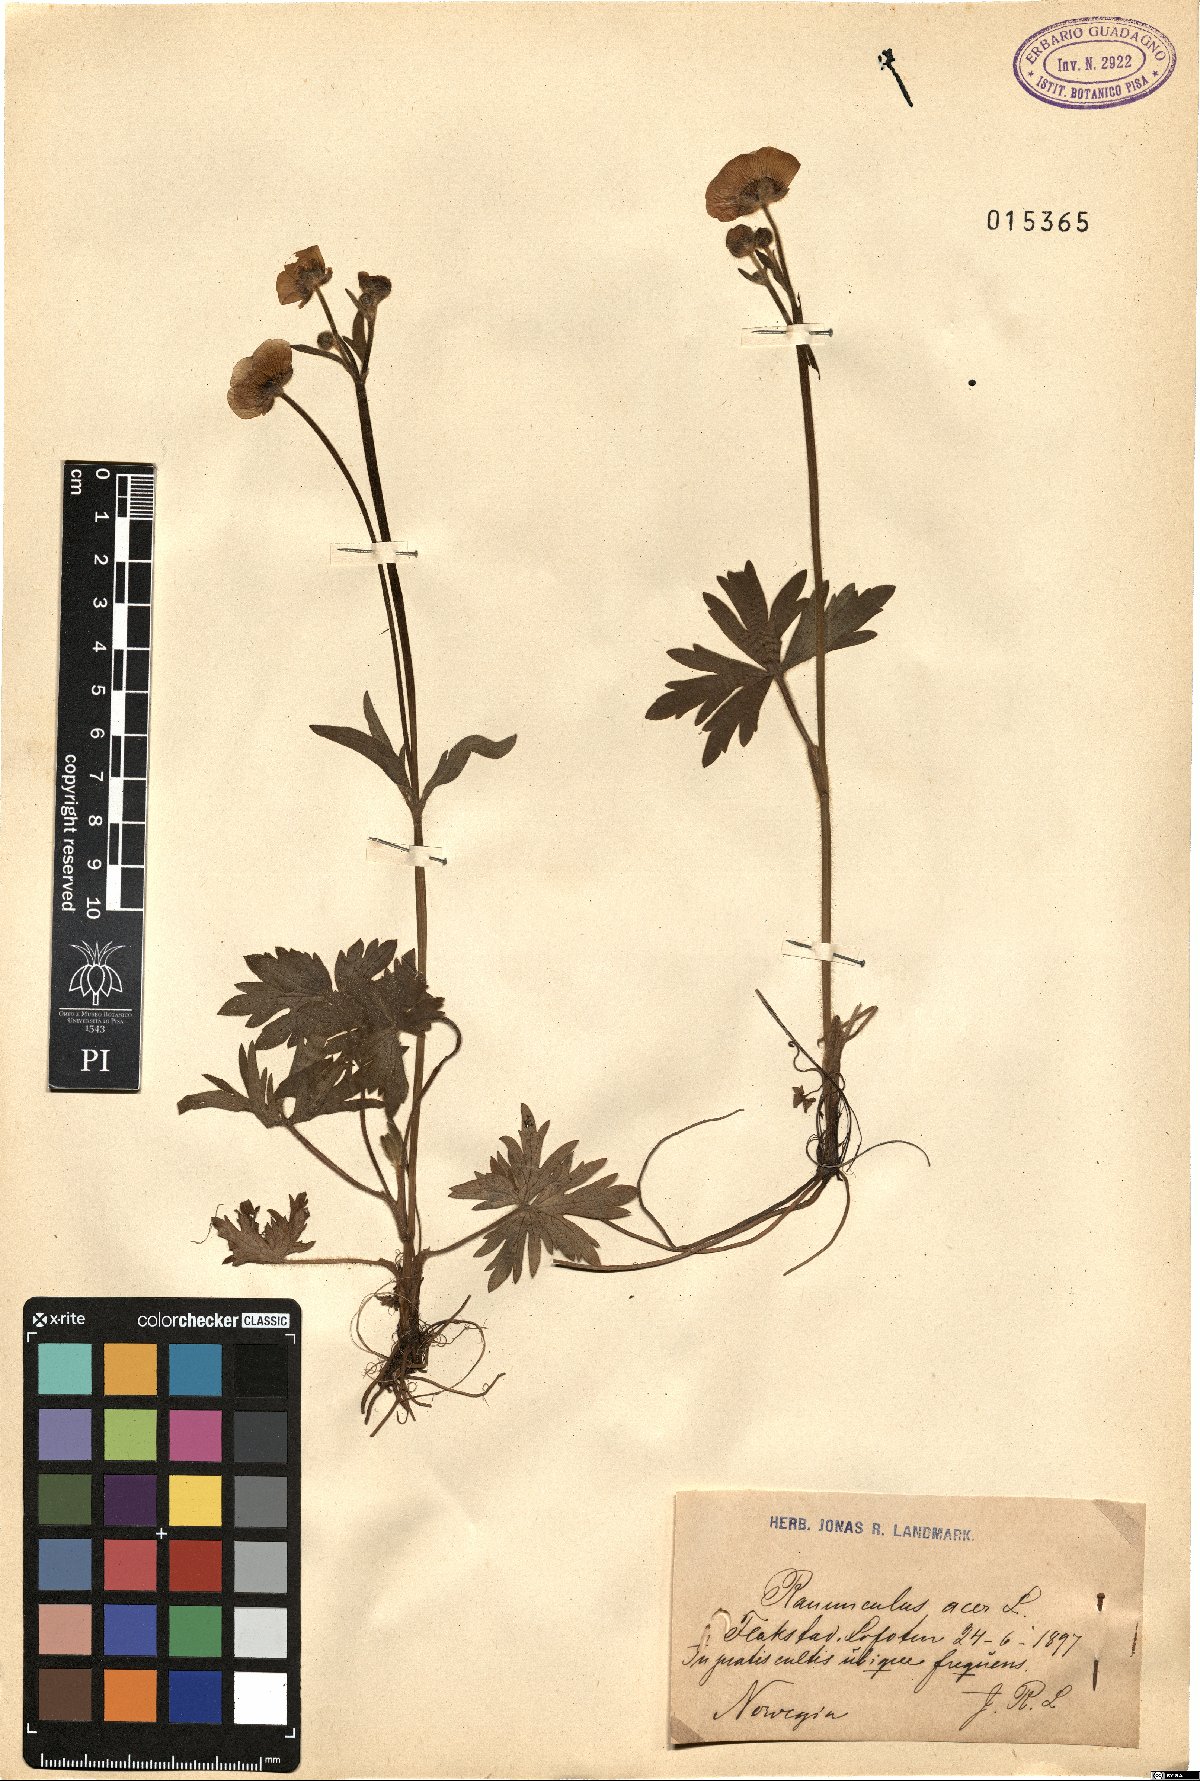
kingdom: Plantae
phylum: Tracheophyta
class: Magnoliopsida
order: Ranunculales
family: Ranunculaceae
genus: Ranunculus
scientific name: Ranunculus acris
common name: Meadow buttercup
